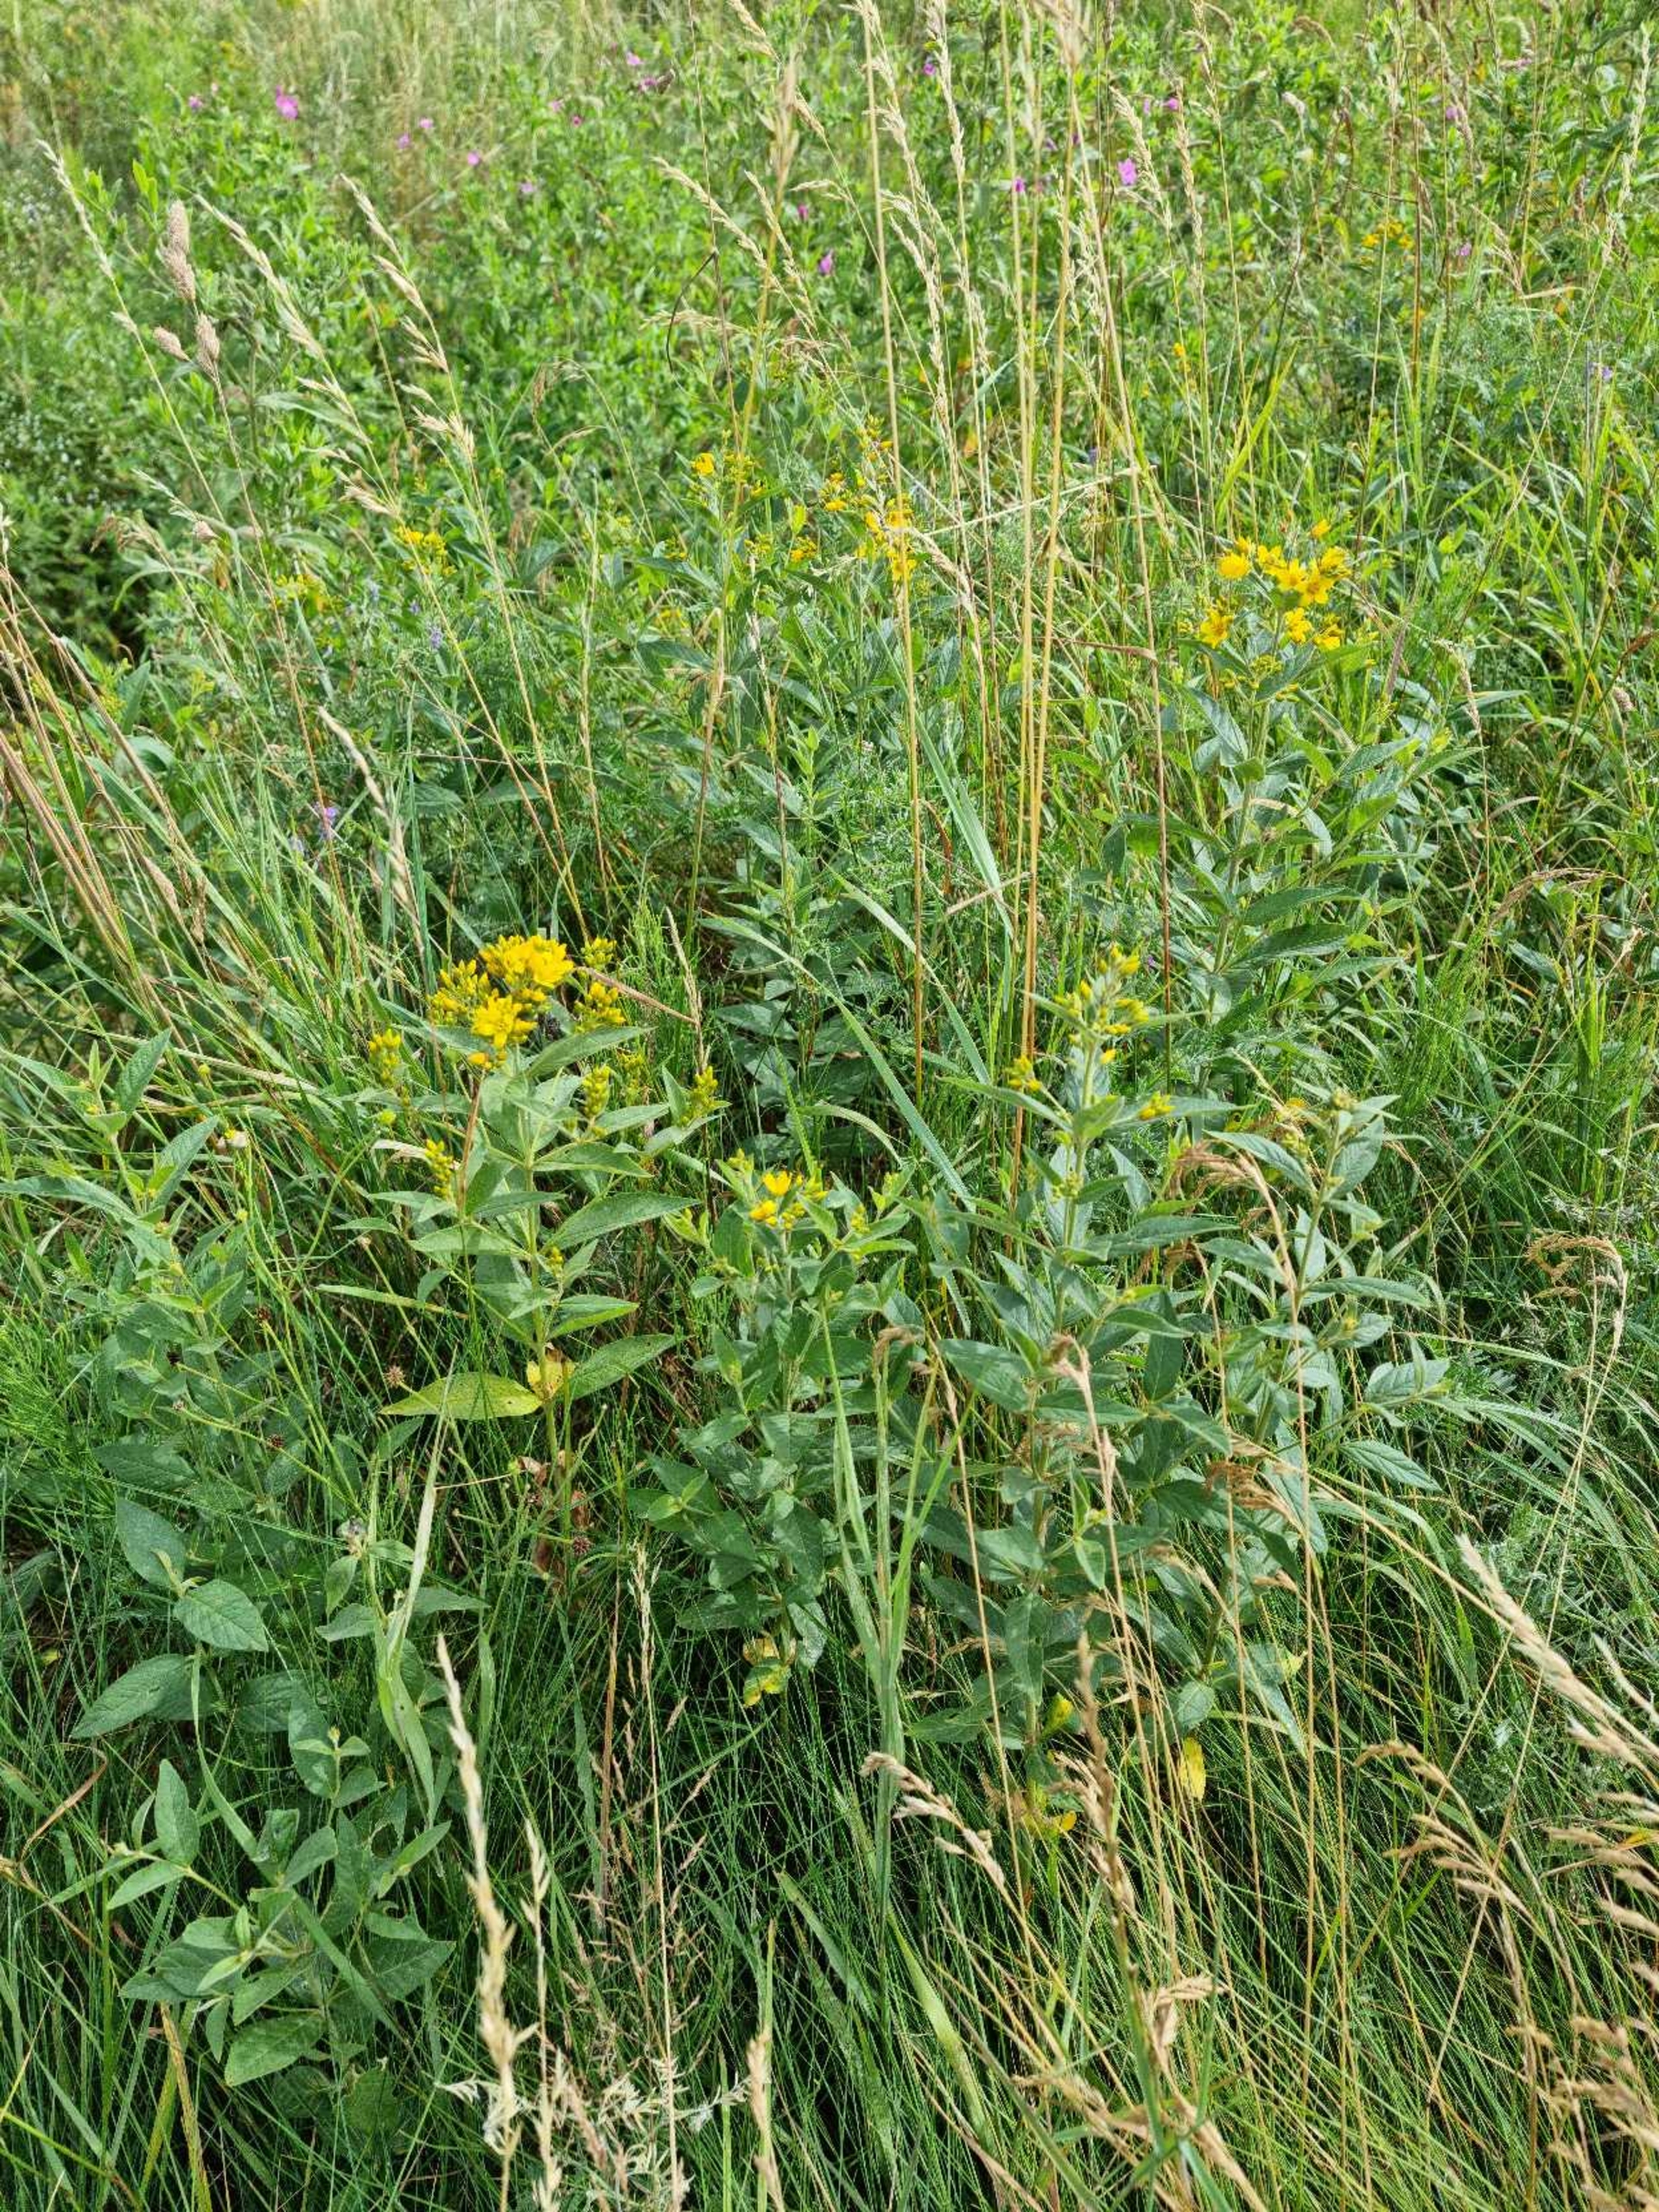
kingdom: Plantae
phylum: Tracheophyta
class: Magnoliopsida
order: Ericales
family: Primulaceae
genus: Lysimachia
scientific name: Lysimachia vulgaris
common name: Almindelig fredløs
